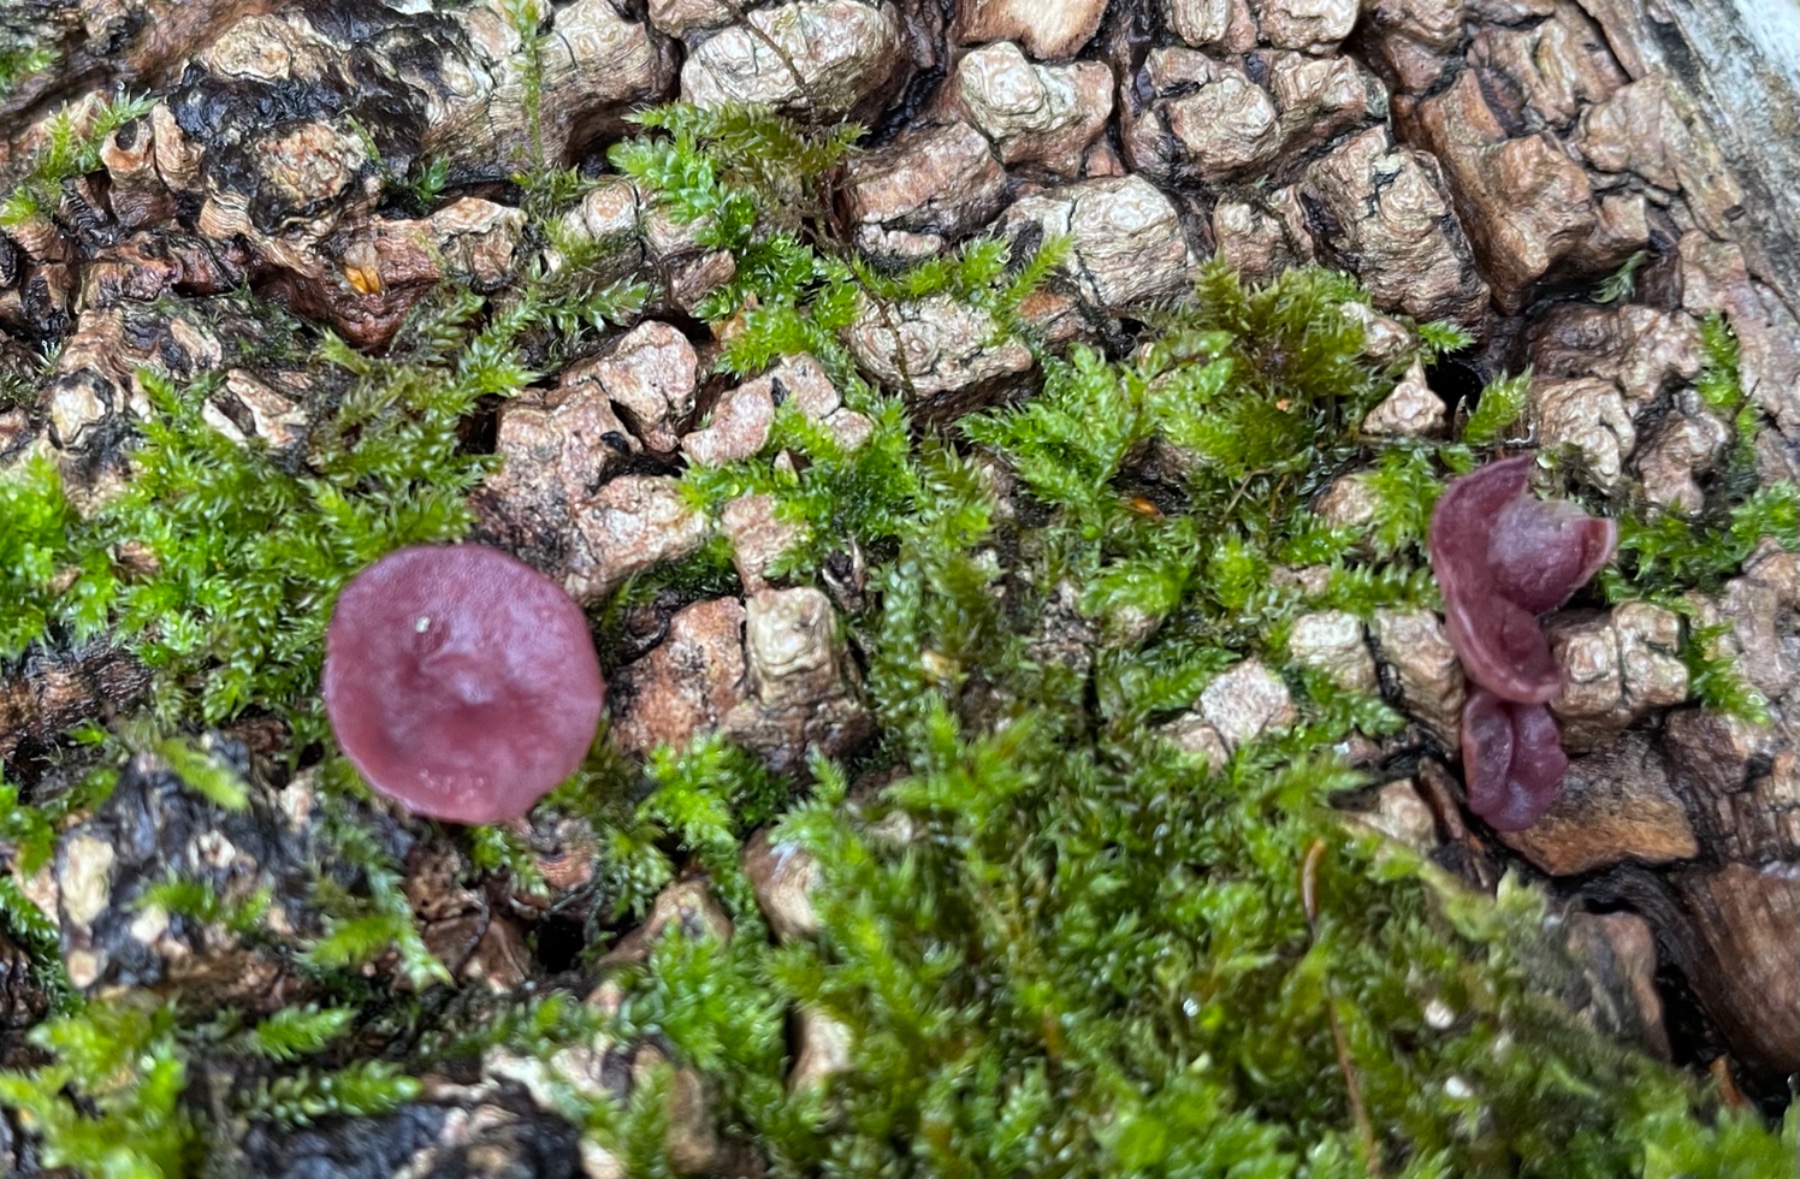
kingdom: Fungi
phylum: Ascomycota
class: Leotiomycetes
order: Helotiales
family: Gelatinodiscaceae
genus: Ascocoryne
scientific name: Ascocoryne cylichnium
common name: stor sejskive
